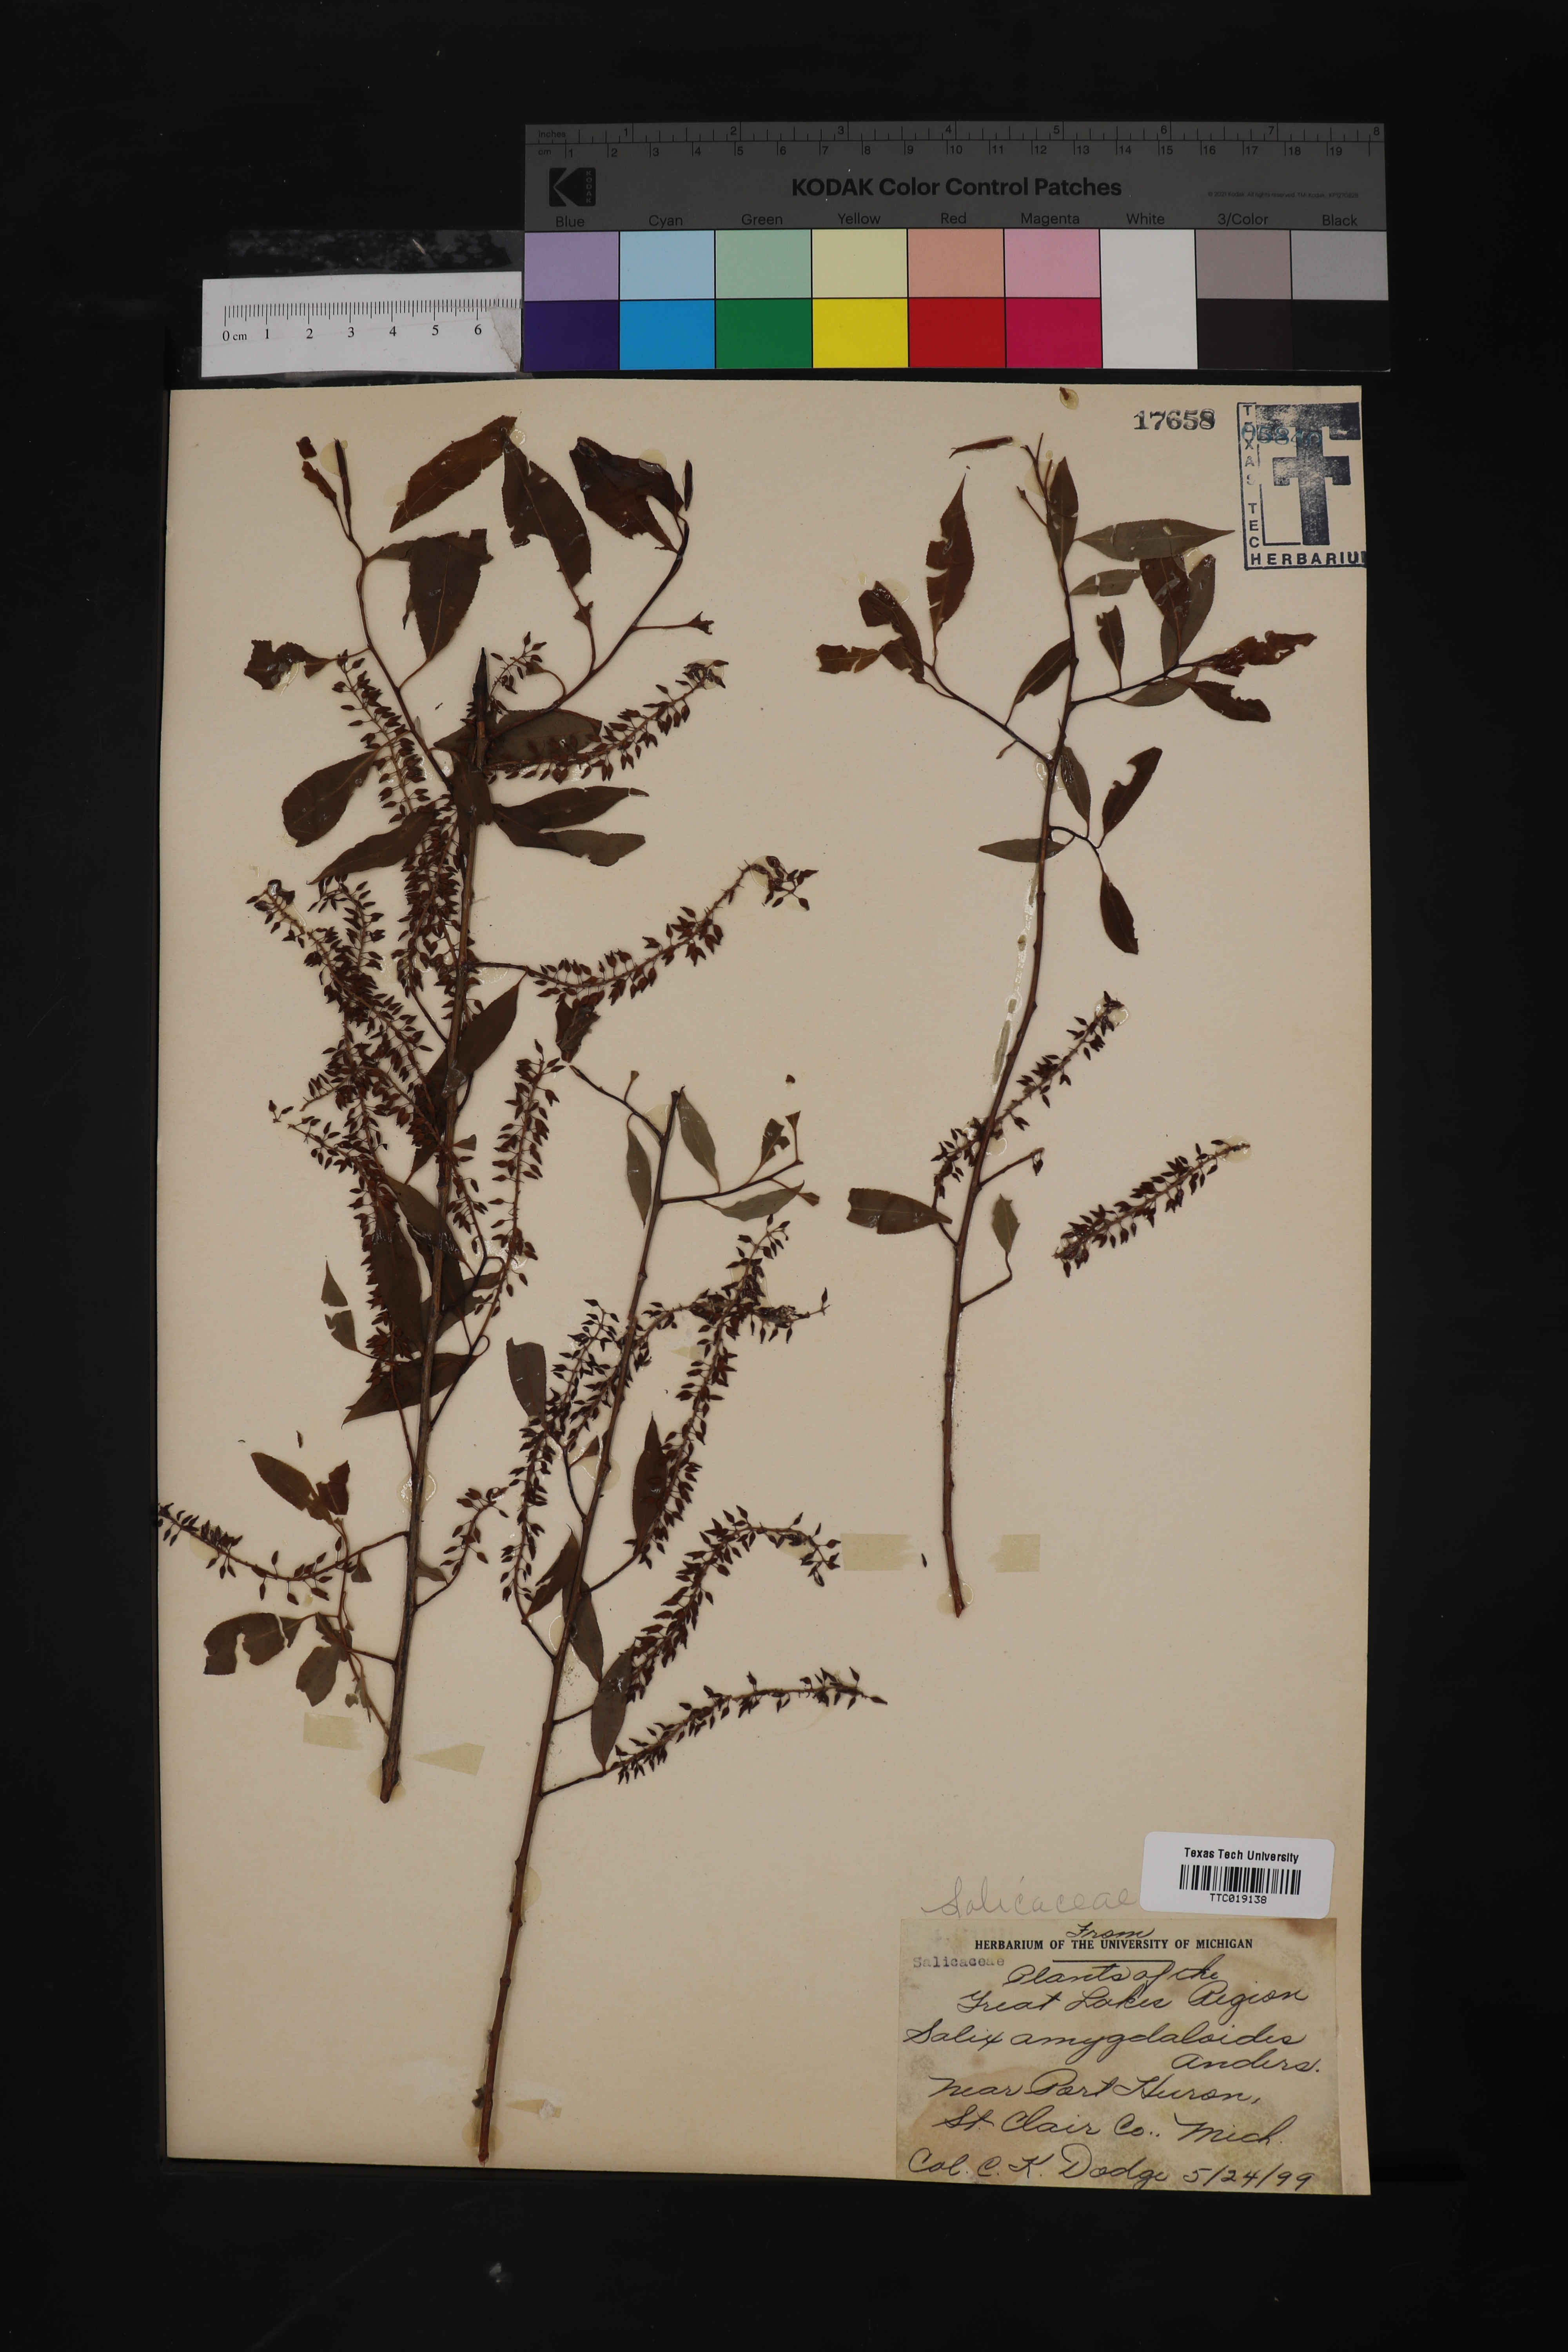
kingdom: Plantae
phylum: Tracheophyta
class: Magnoliopsida
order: Malpighiales
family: Salicaceae
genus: Salix
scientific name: Salix amygdaloides
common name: Peach leaf willow
